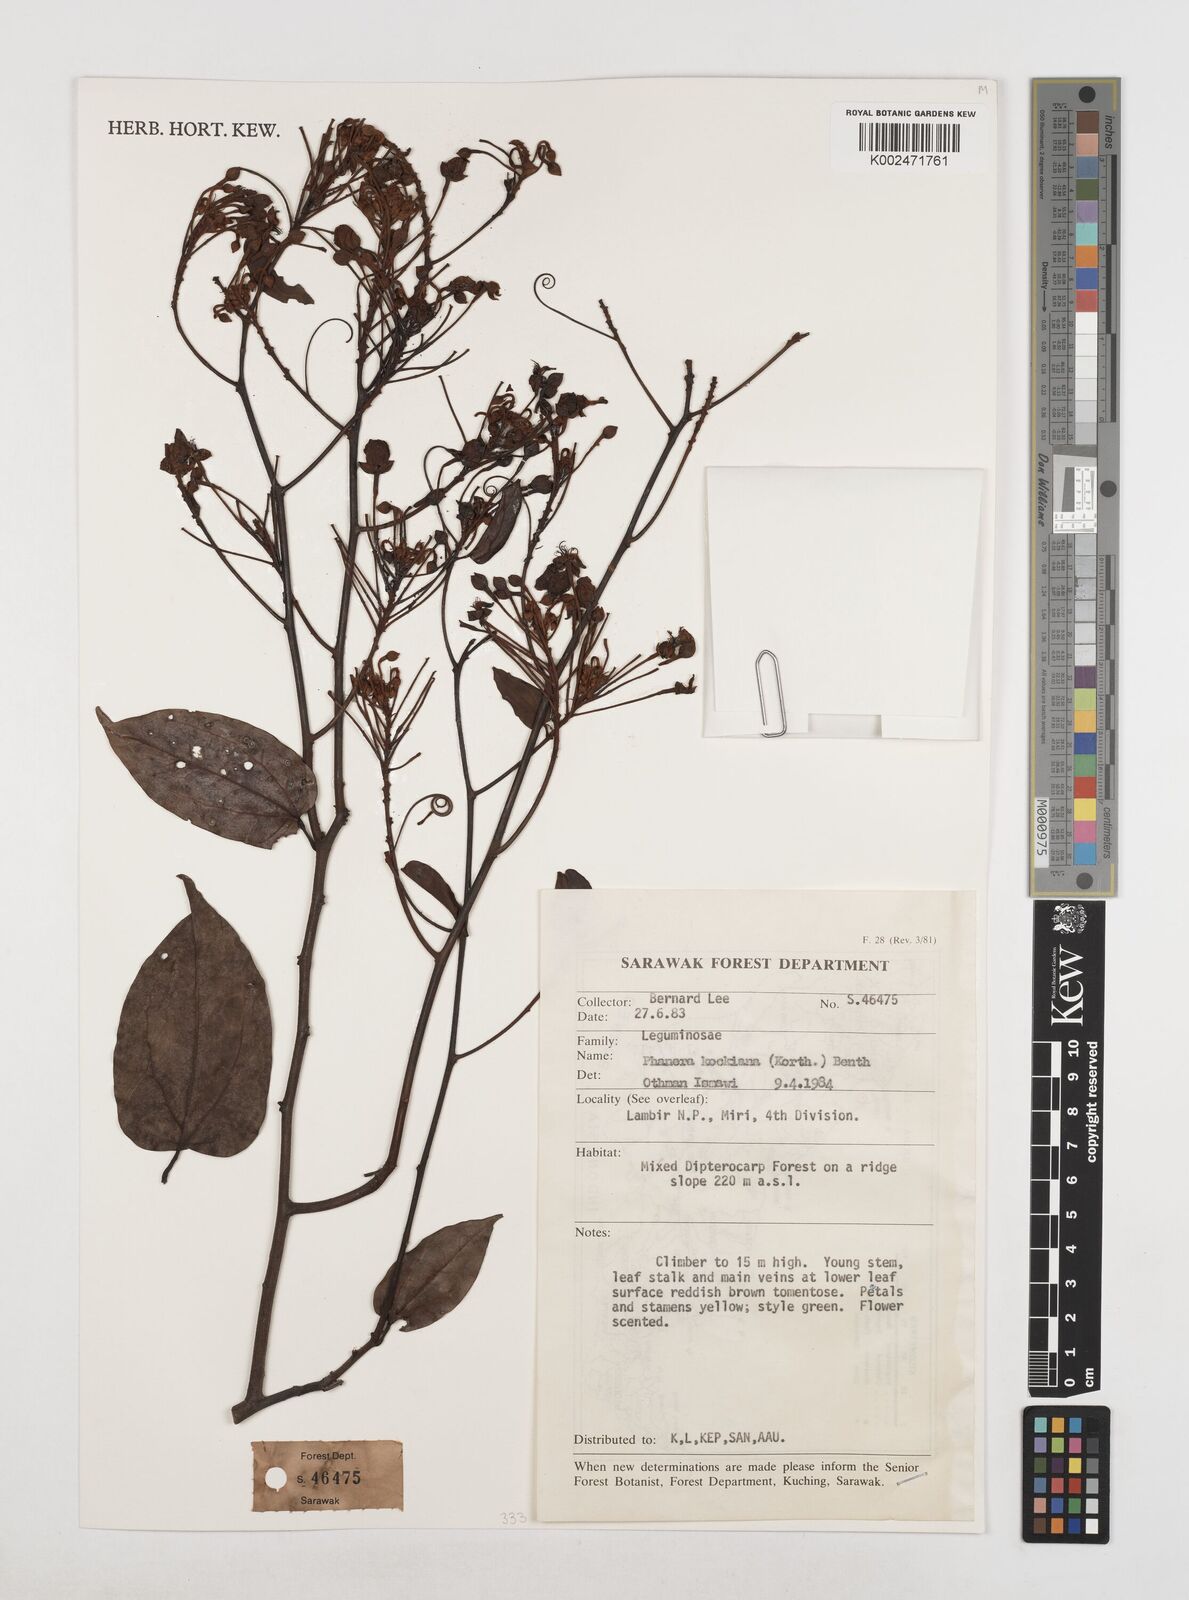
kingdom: Plantae
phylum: Tracheophyta
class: Magnoliopsida
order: Fabales
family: Fabaceae
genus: Phanera
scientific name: Phanera kockiana
